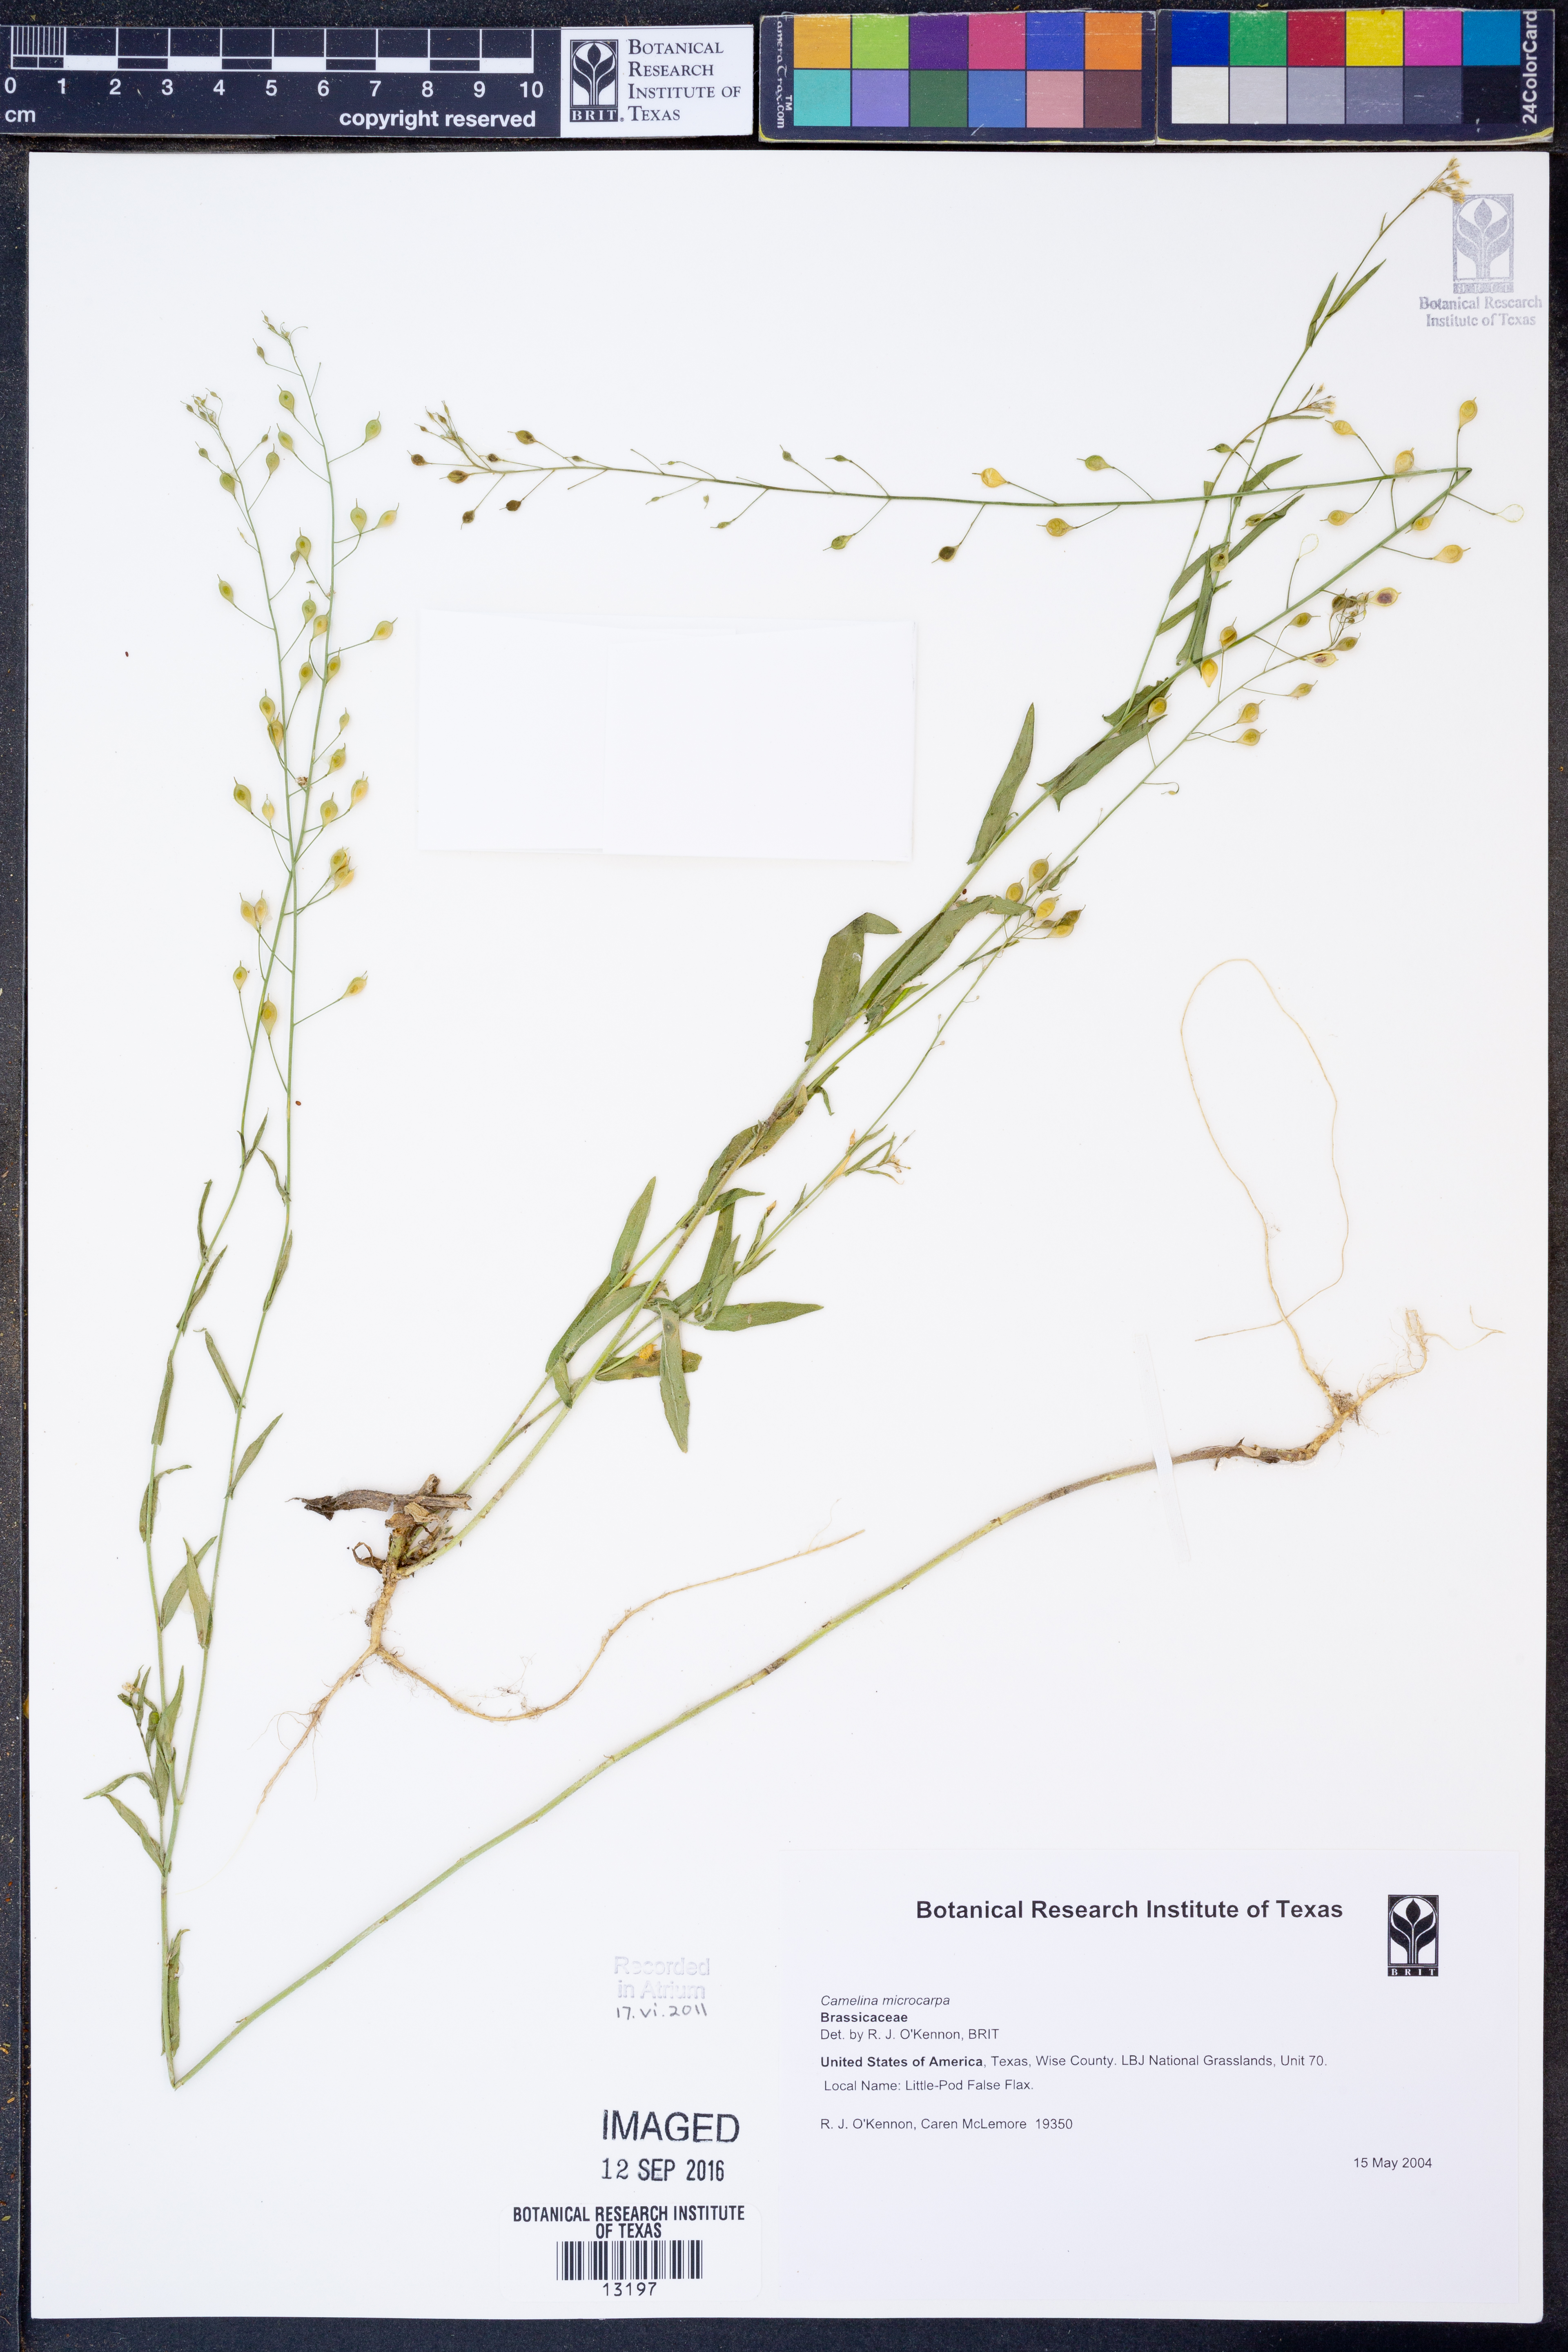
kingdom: Plantae
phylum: Tracheophyta
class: Magnoliopsida
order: Brassicales
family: Brassicaceae
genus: Camelina
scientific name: Camelina microcarpa
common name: Lesser gold-of-pleasure
